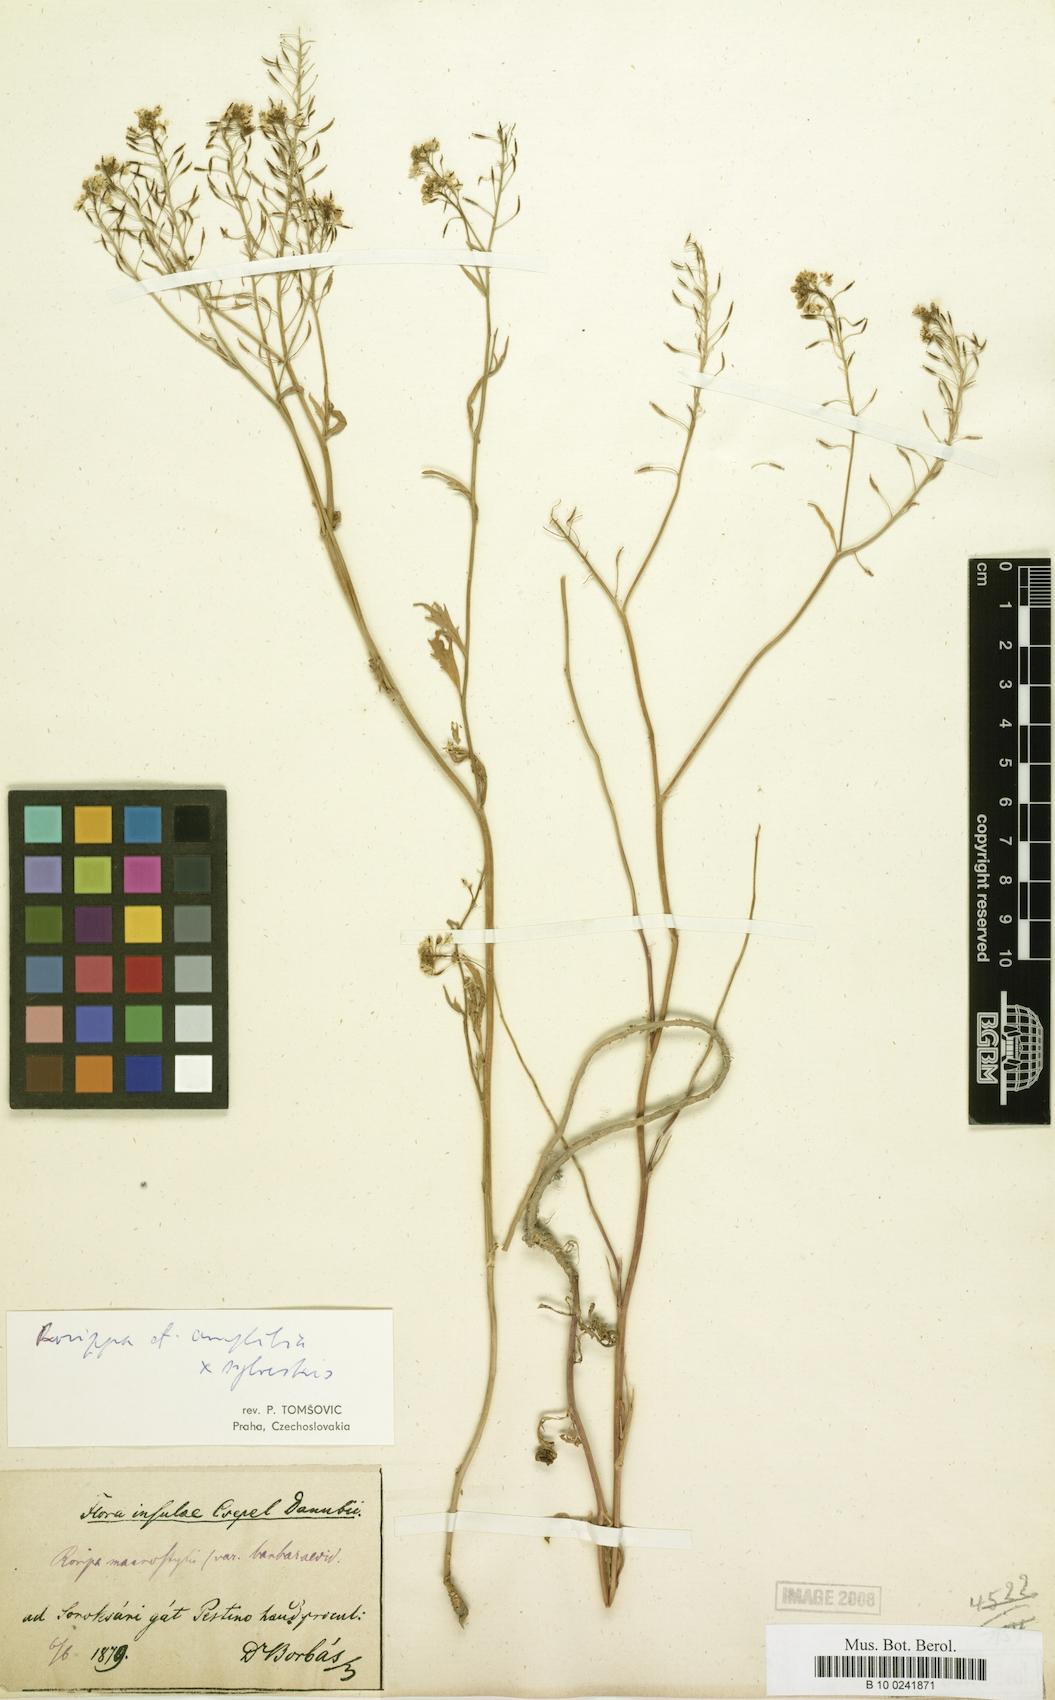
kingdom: Plantae
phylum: Tracheophyta
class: Magnoliopsida
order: Brassicales
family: Brassicaceae
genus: Lepidium
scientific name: Lepidium hirtum
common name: Mediterranean pepperweed
